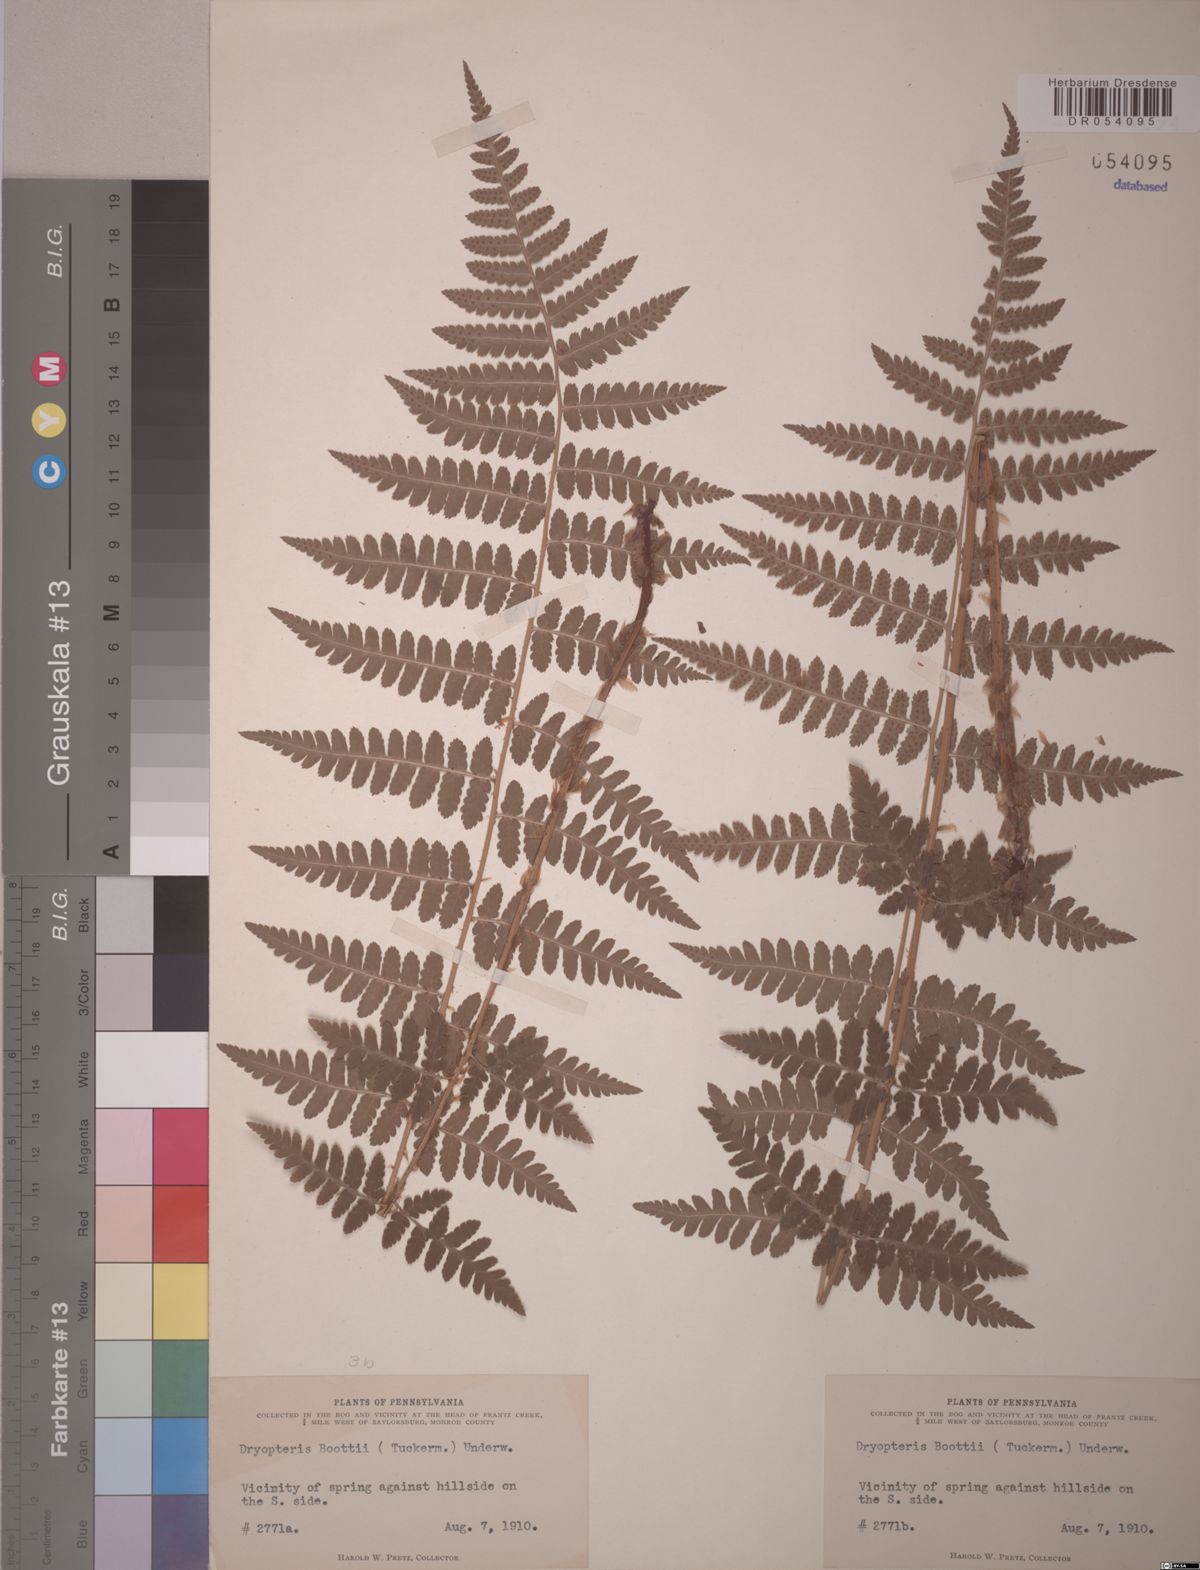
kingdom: Plantae
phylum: Tracheophyta
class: Polypodiopsida
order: Polypodiales
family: Dryopteridaceae
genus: Dryopteris
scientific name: Dryopteris boottii
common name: Boott's fern
